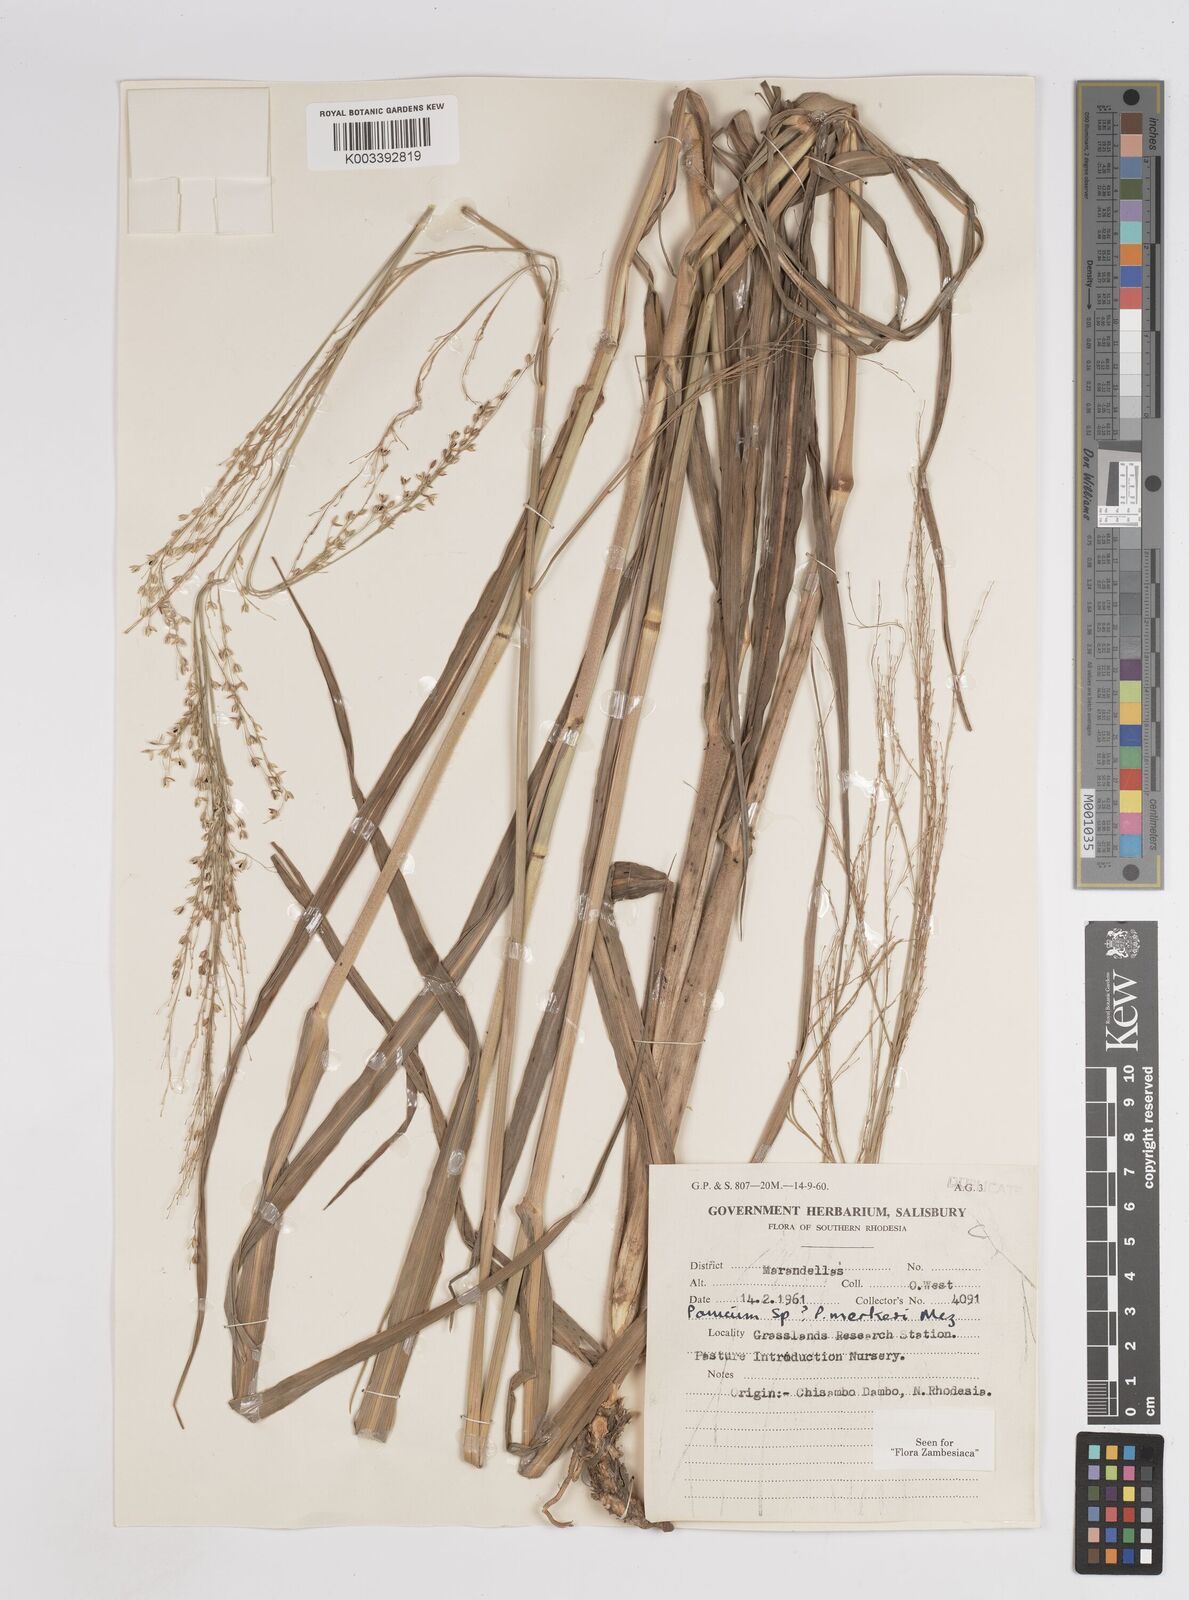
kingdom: Plantae
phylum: Tracheophyta
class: Liliopsida
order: Poales
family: Poaceae
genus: Panicum
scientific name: Panicum merkeri
